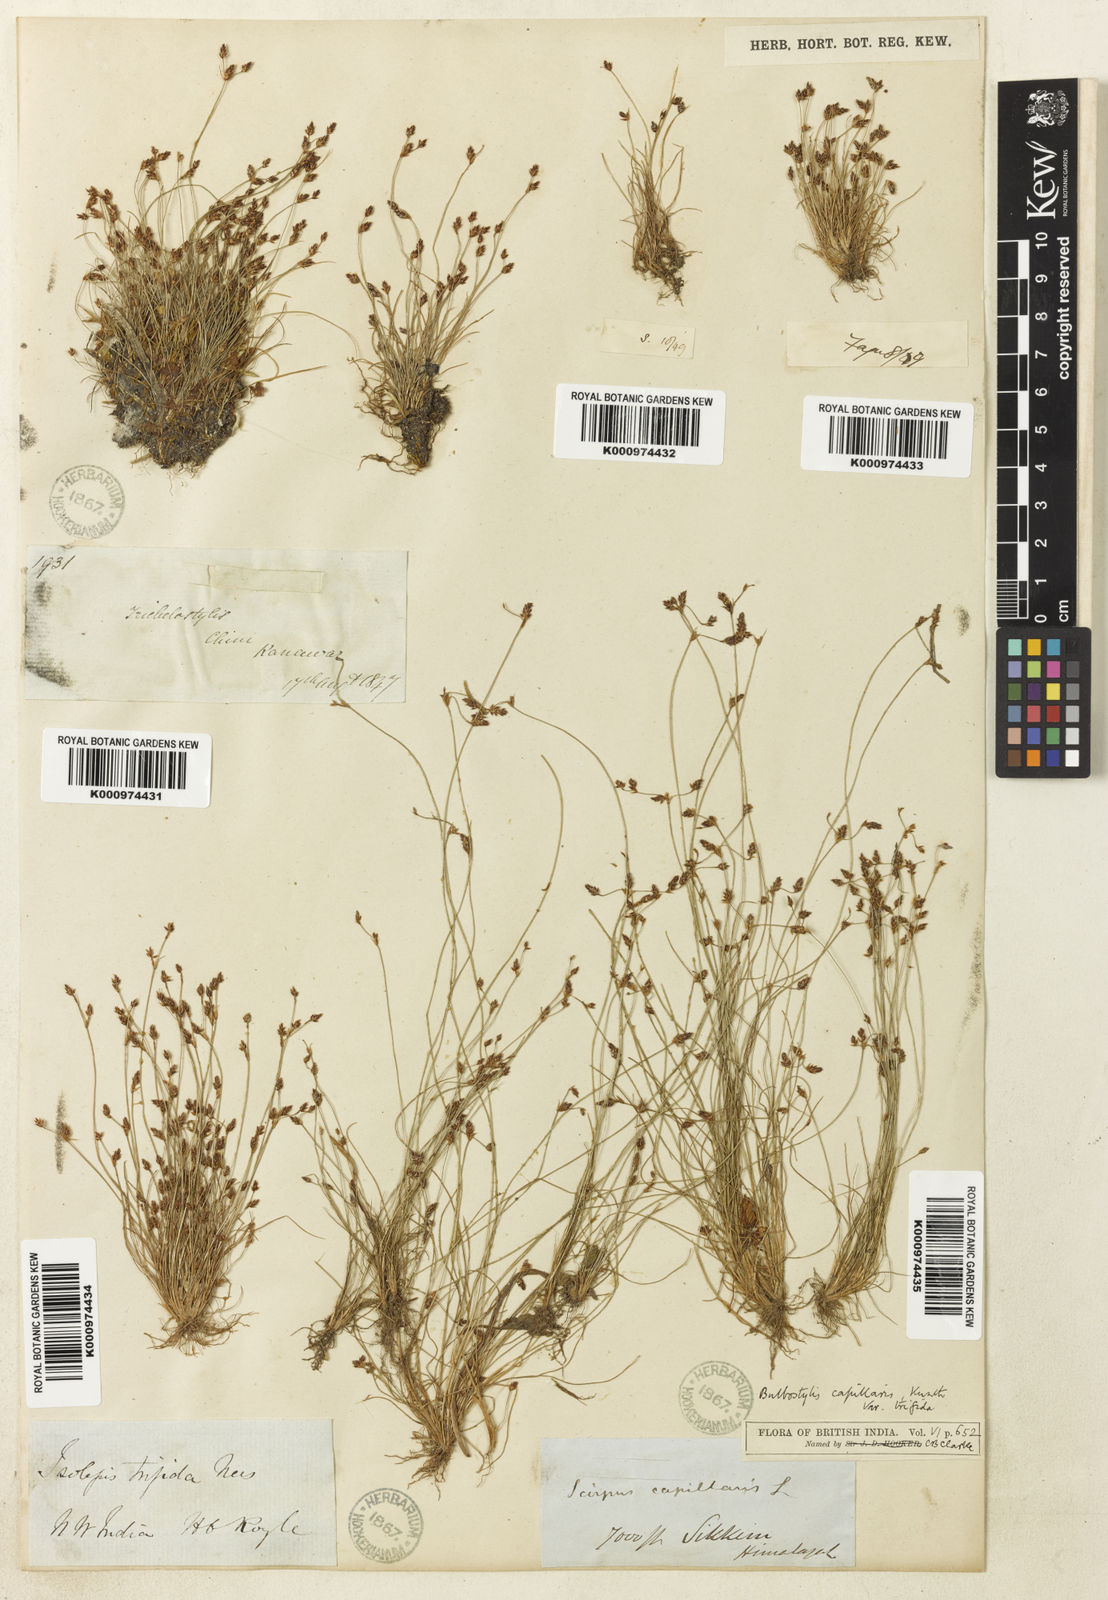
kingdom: Plantae
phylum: Tracheophyta
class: Liliopsida
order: Poales
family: Cyperaceae
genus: Bulbostylis
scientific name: Bulbostylis capillaris
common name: Densetuft hairsedge
